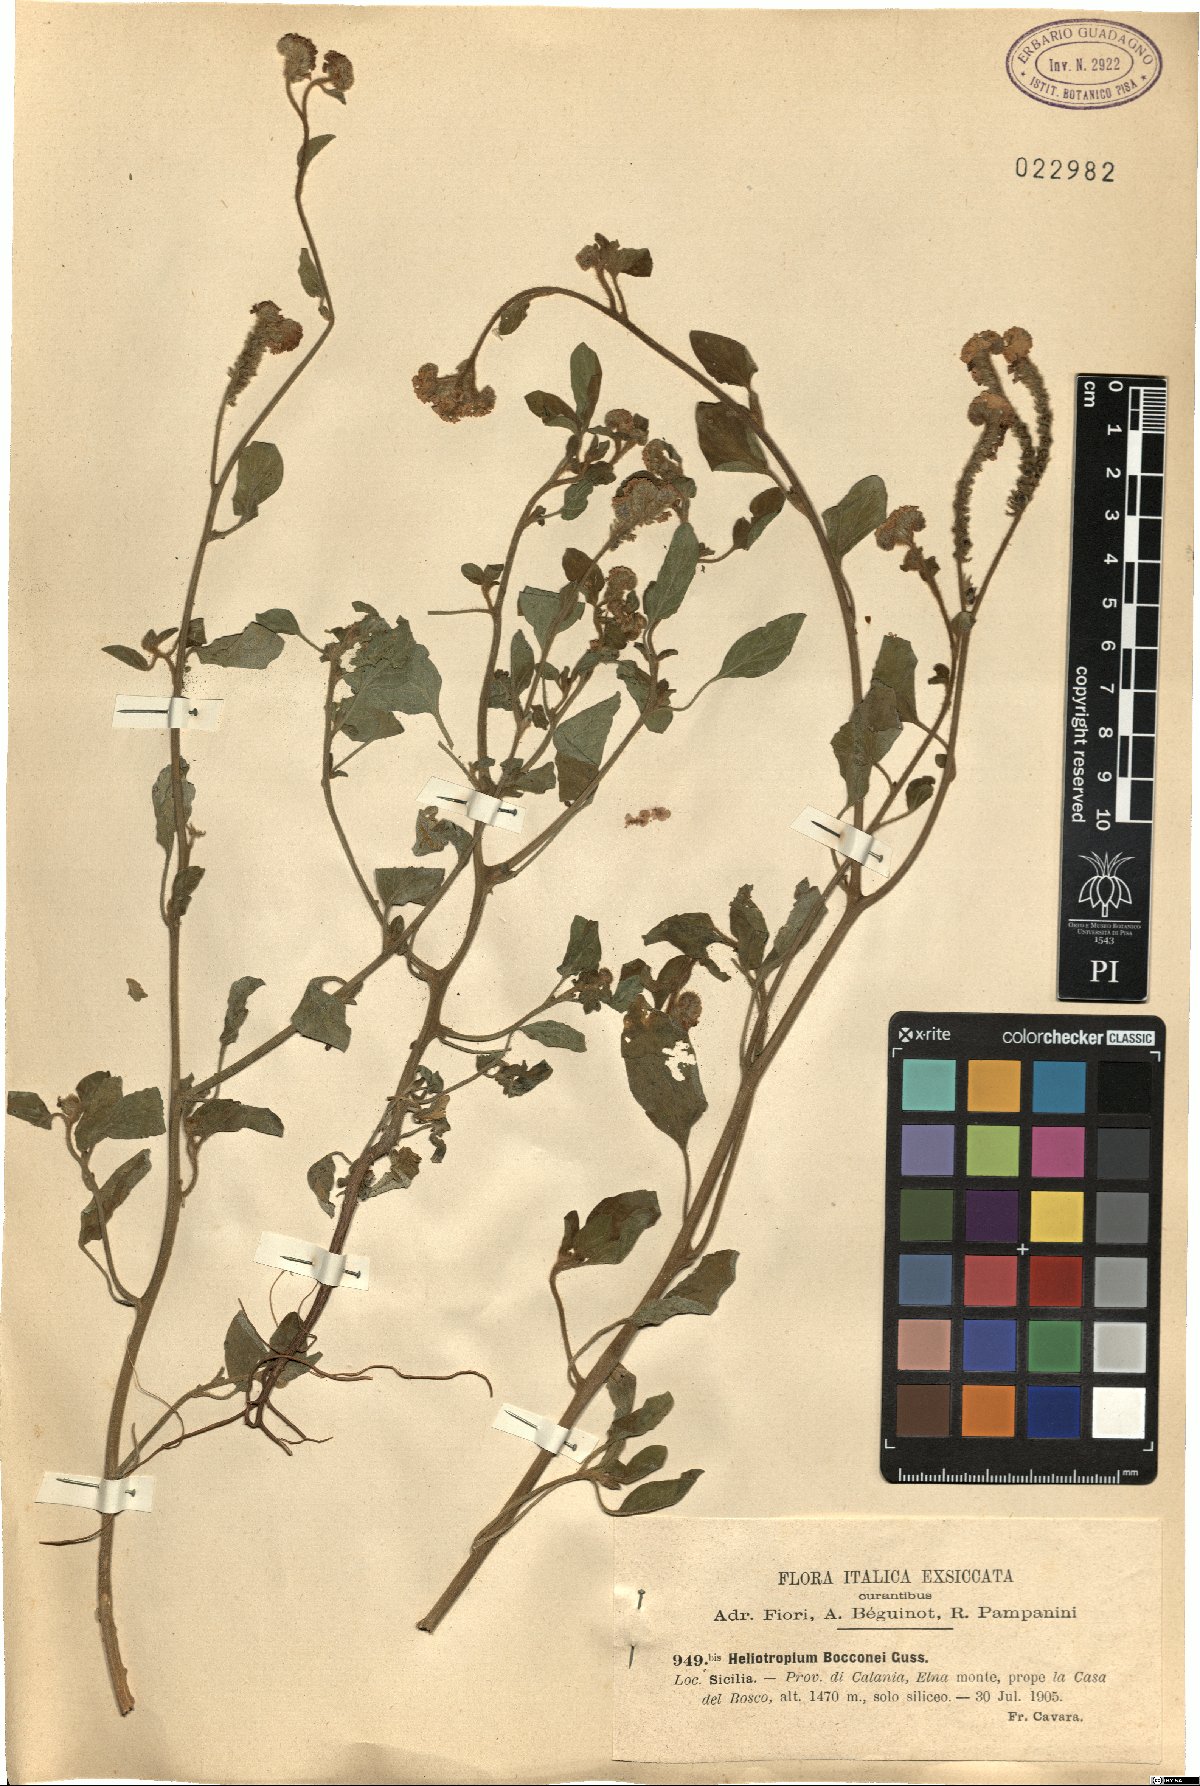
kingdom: Plantae
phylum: Tracheophyta
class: Magnoliopsida
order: Boraginales
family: Heliotropiaceae
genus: Heliotropium
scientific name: Heliotropium suaveolens
